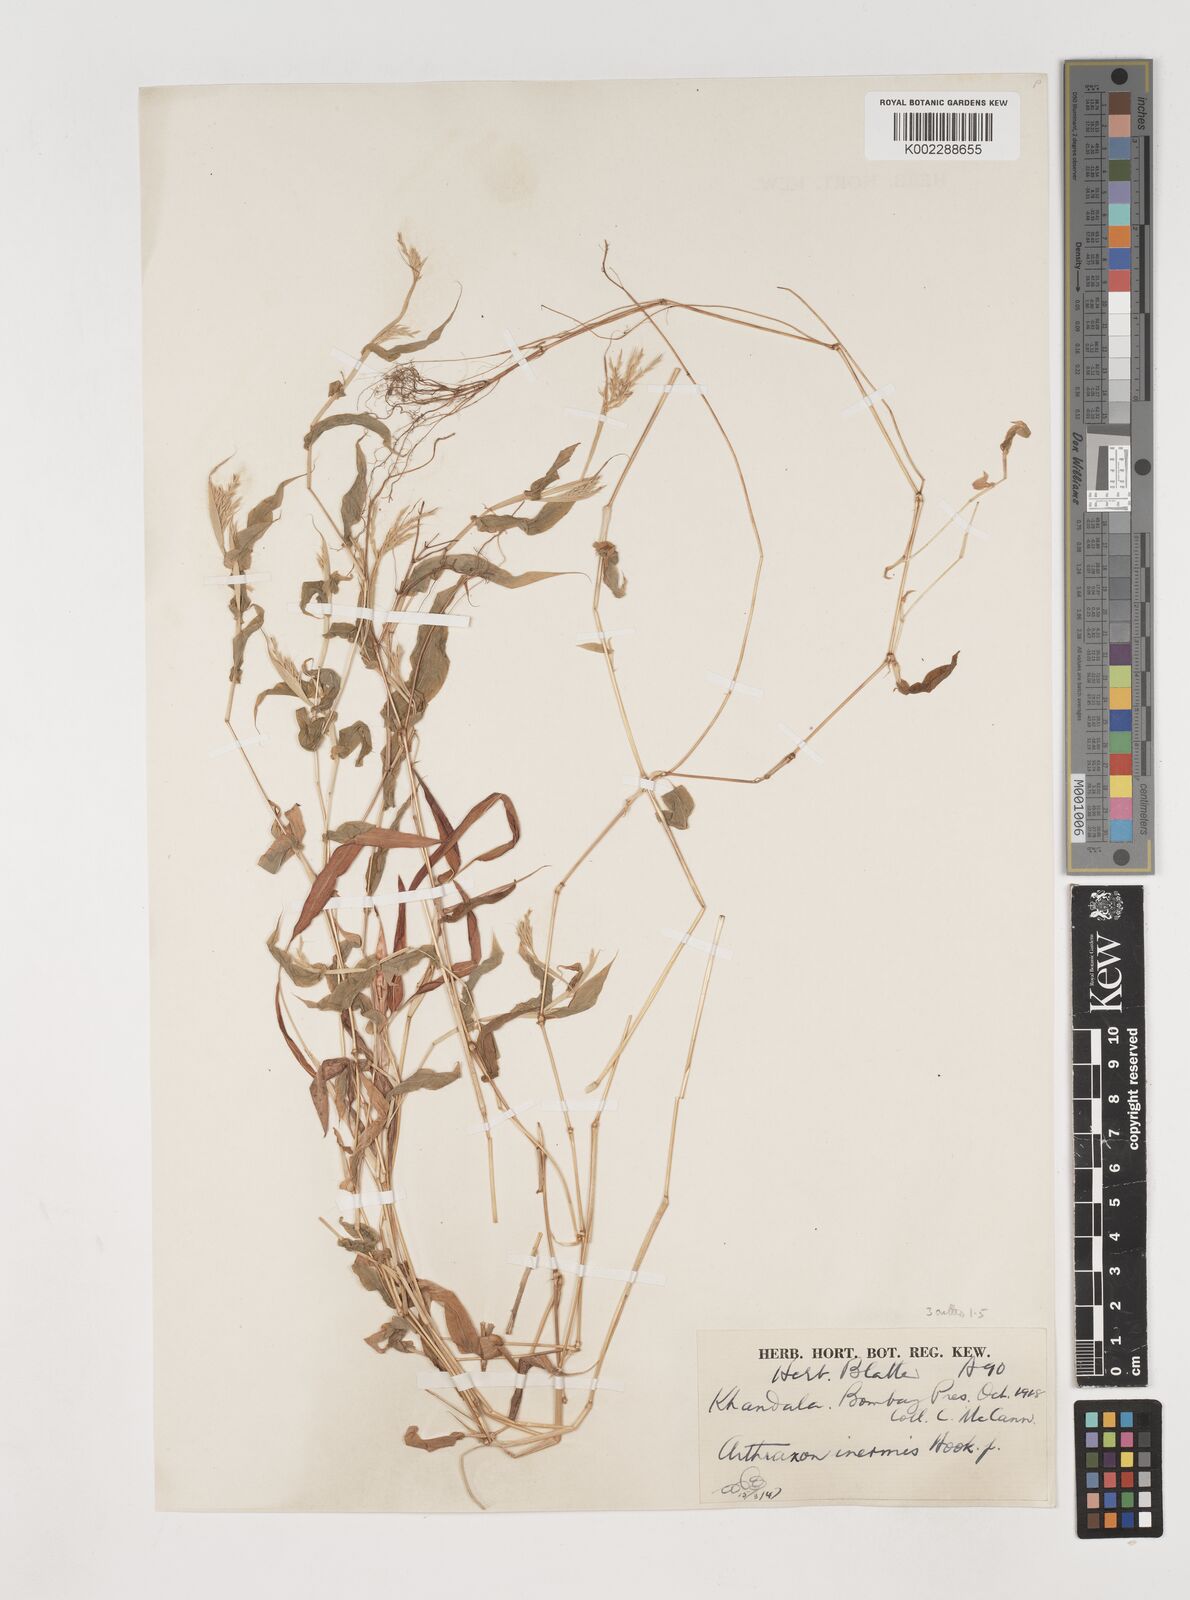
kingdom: Plantae
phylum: Tracheophyta
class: Liliopsida
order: Poales
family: Poaceae
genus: Arthraxon
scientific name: Arthraxon inermis
